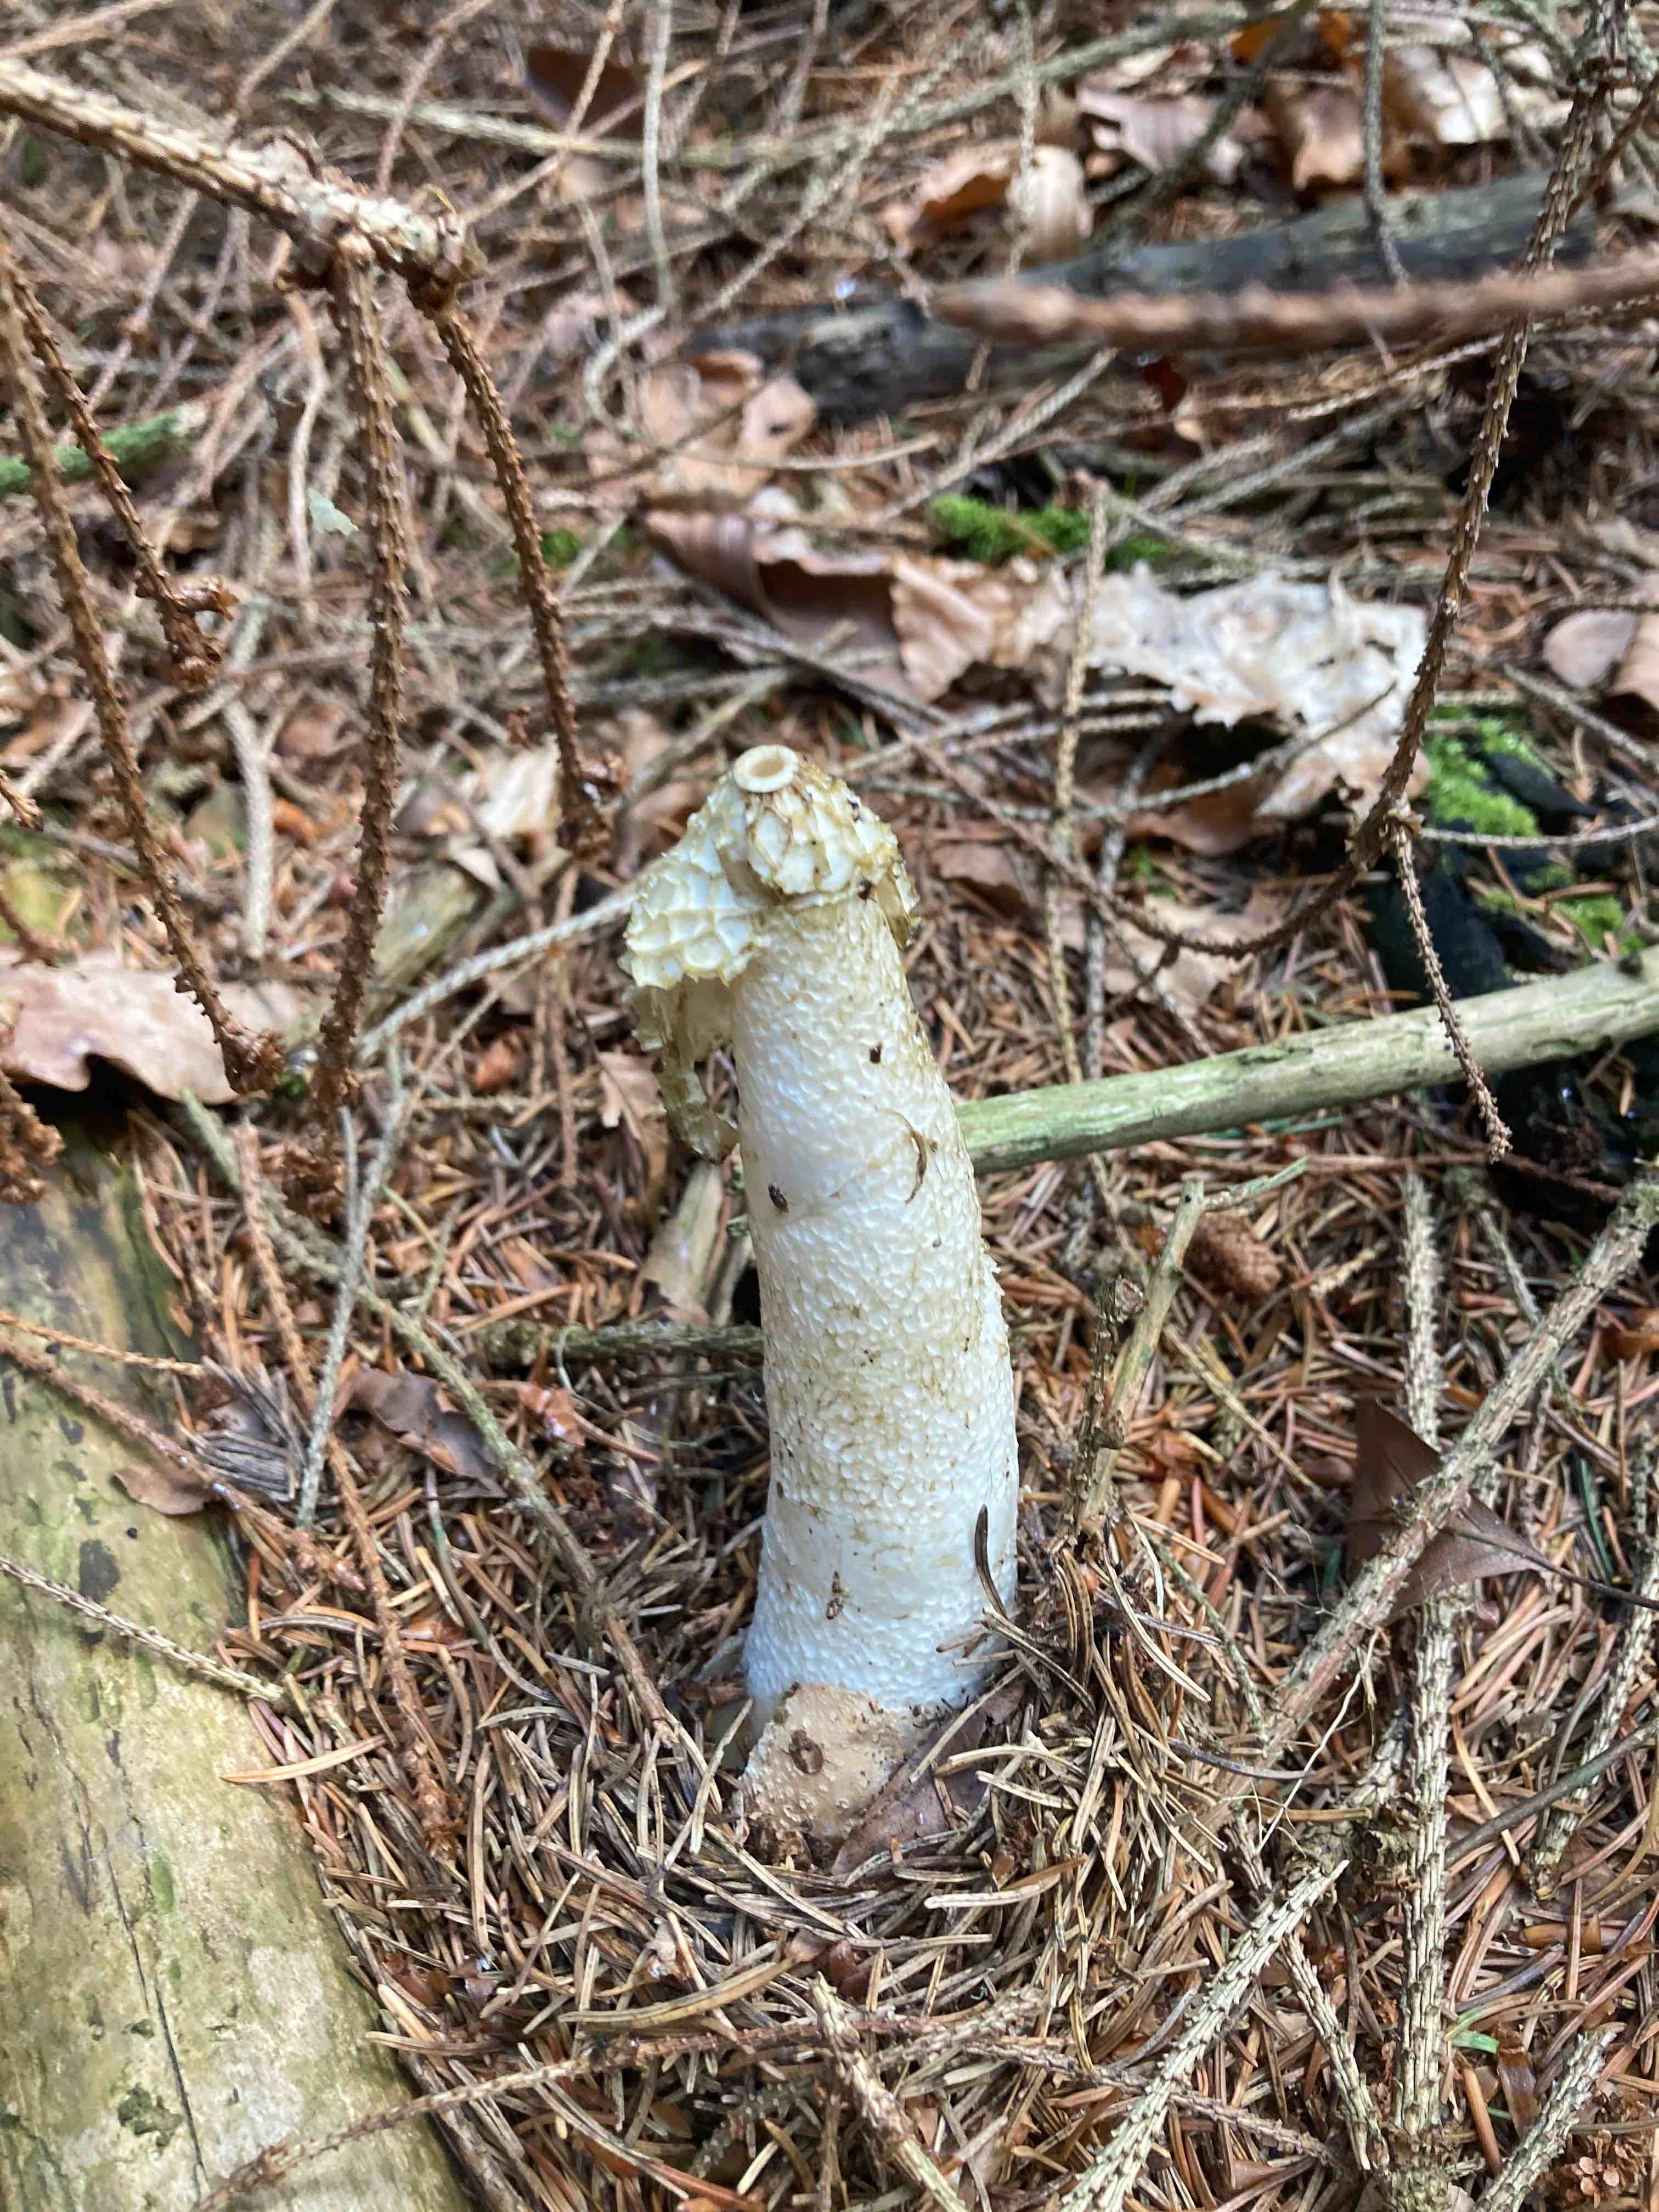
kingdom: Fungi
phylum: Basidiomycota
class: Agaricomycetes
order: Phallales
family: Phallaceae
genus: Phallus
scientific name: Phallus impudicus
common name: almindelig stinksvamp
